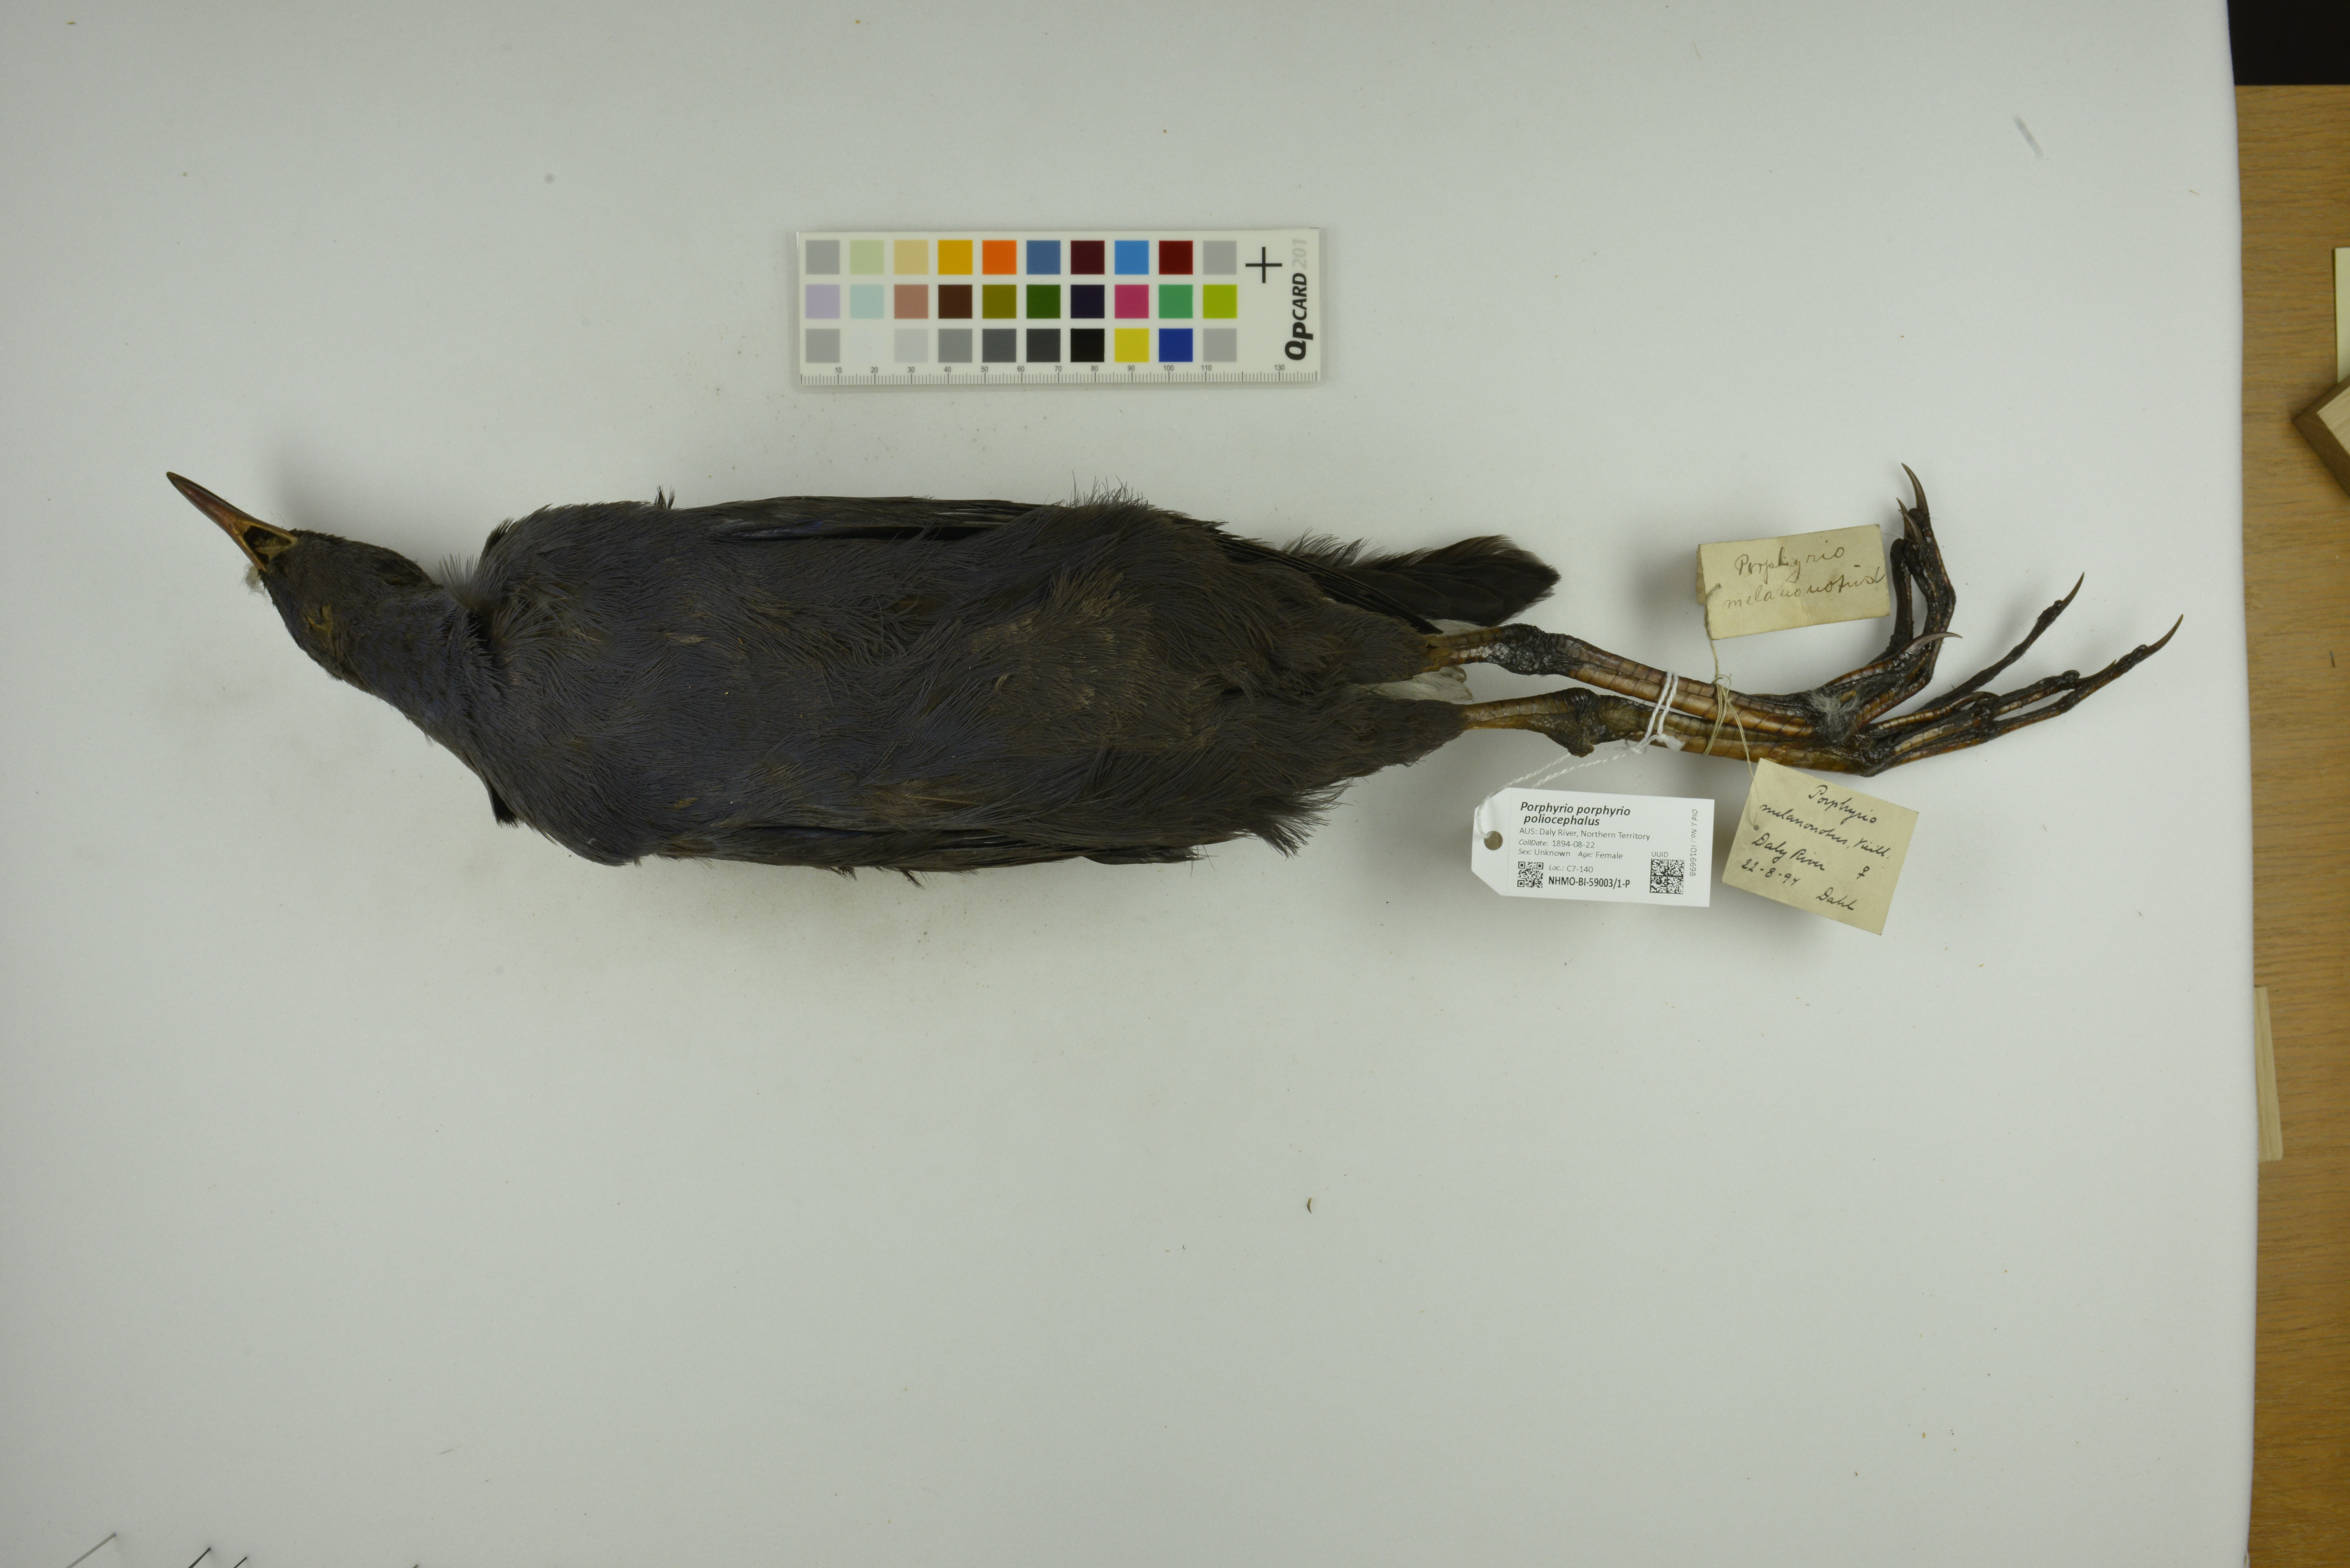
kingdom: Animalia
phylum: Chordata
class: Aves
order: Gruiformes
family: Rallidae
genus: Porphyrio
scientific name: Porphyrio porphyrio
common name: Purple swamphen
